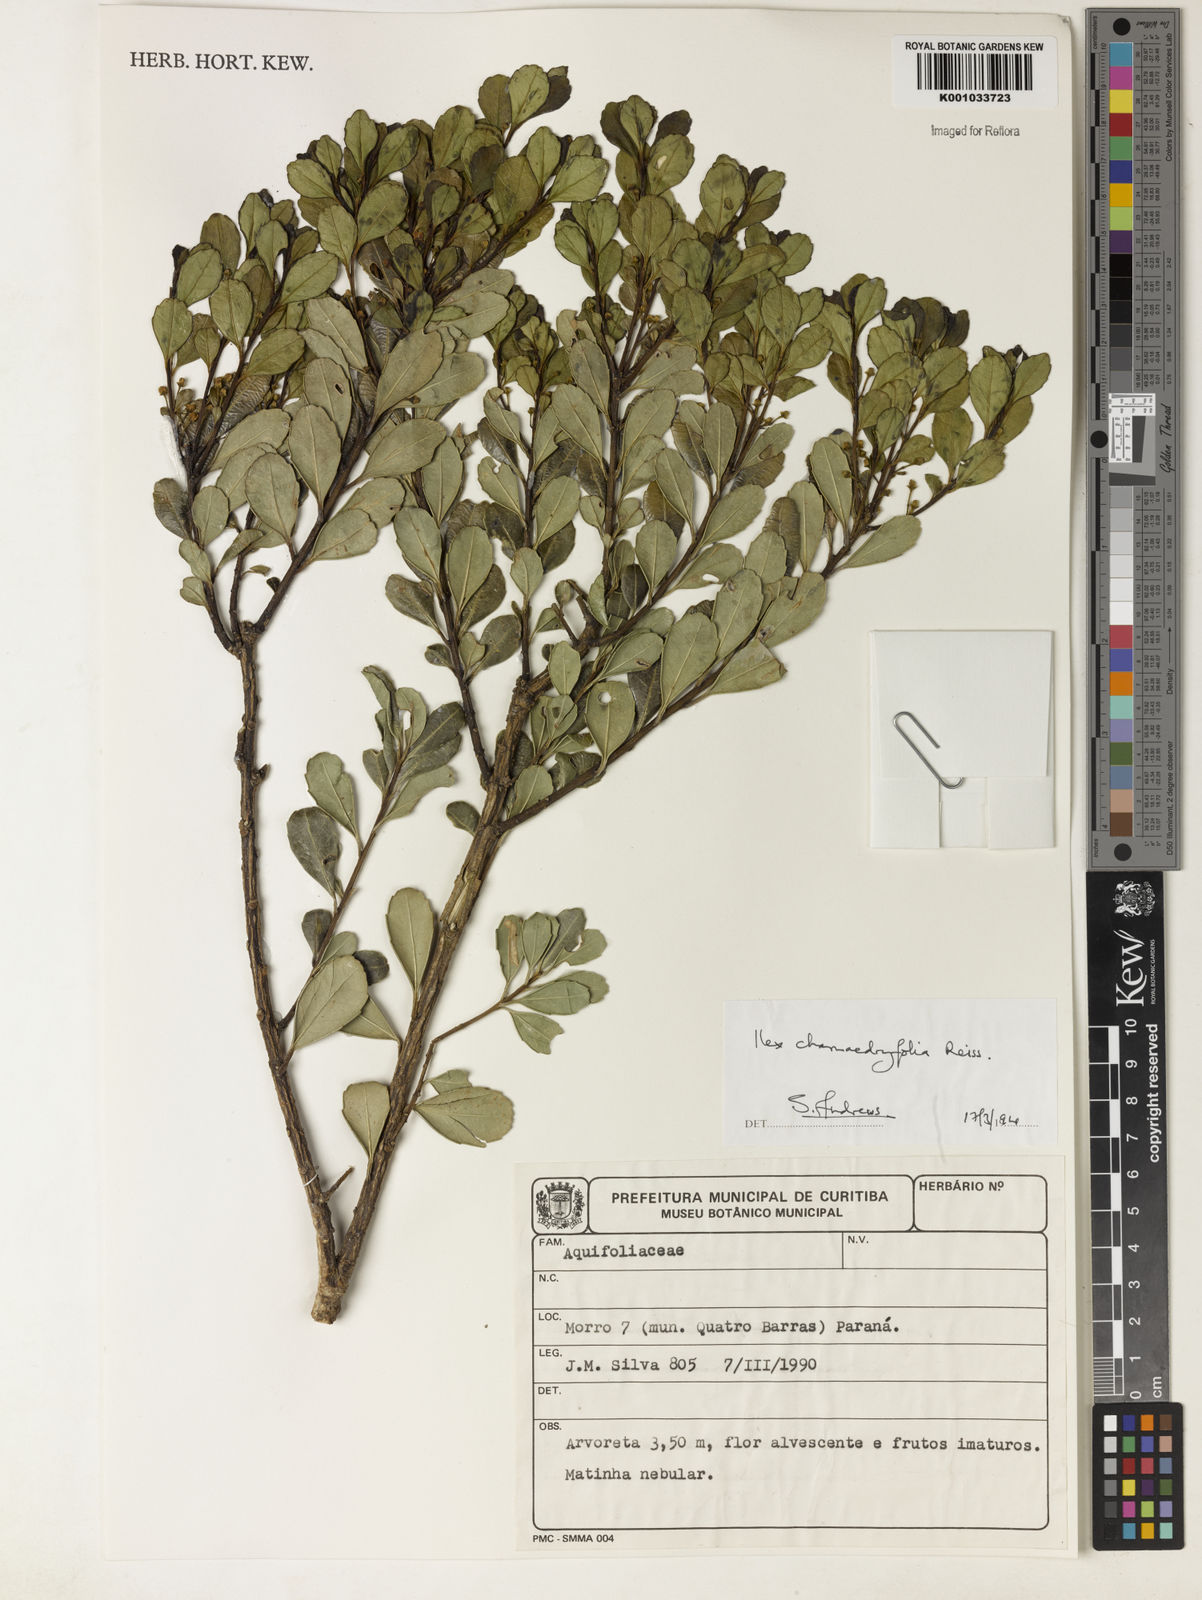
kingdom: Plantae
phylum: Tracheophyta
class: Magnoliopsida
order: Aquifoliales
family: Aquifoliaceae
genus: Ilex
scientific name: Ilex chamaedryfolia
